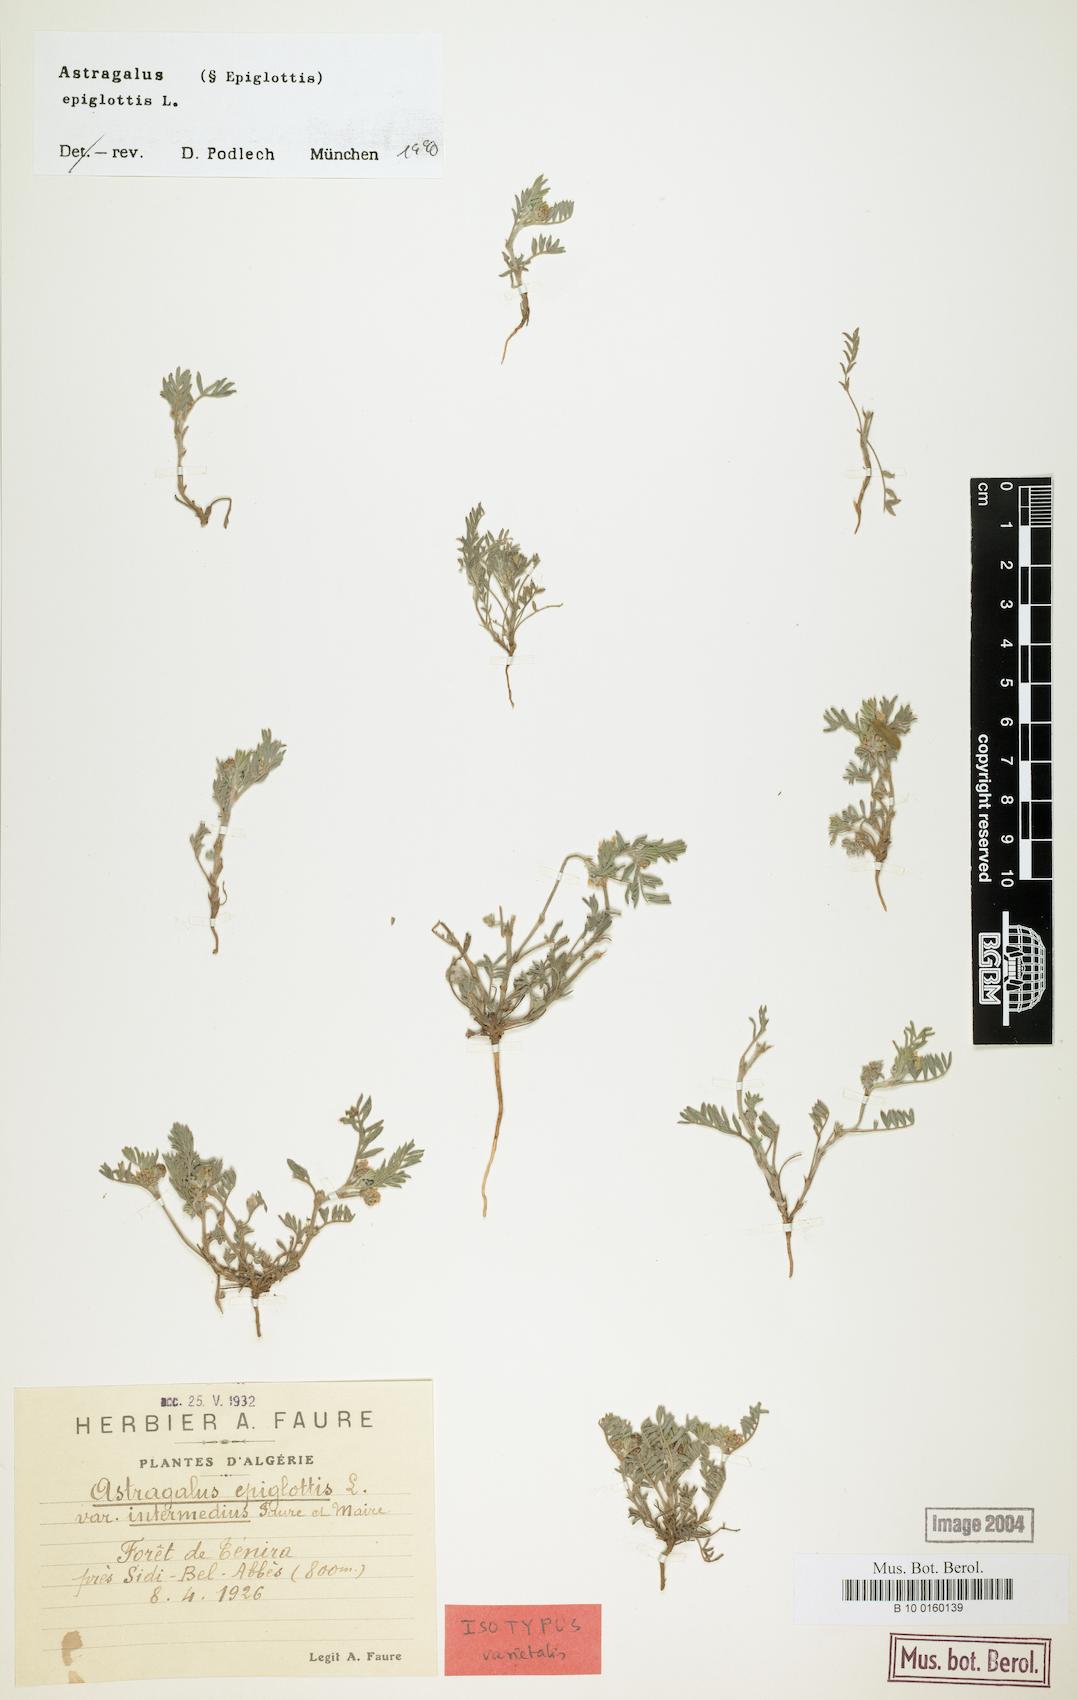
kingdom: Plantae
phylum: Tracheophyta
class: Magnoliopsida
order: Fabales
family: Fabaceae
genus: Biserrula
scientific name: Biserrula epiglottis
